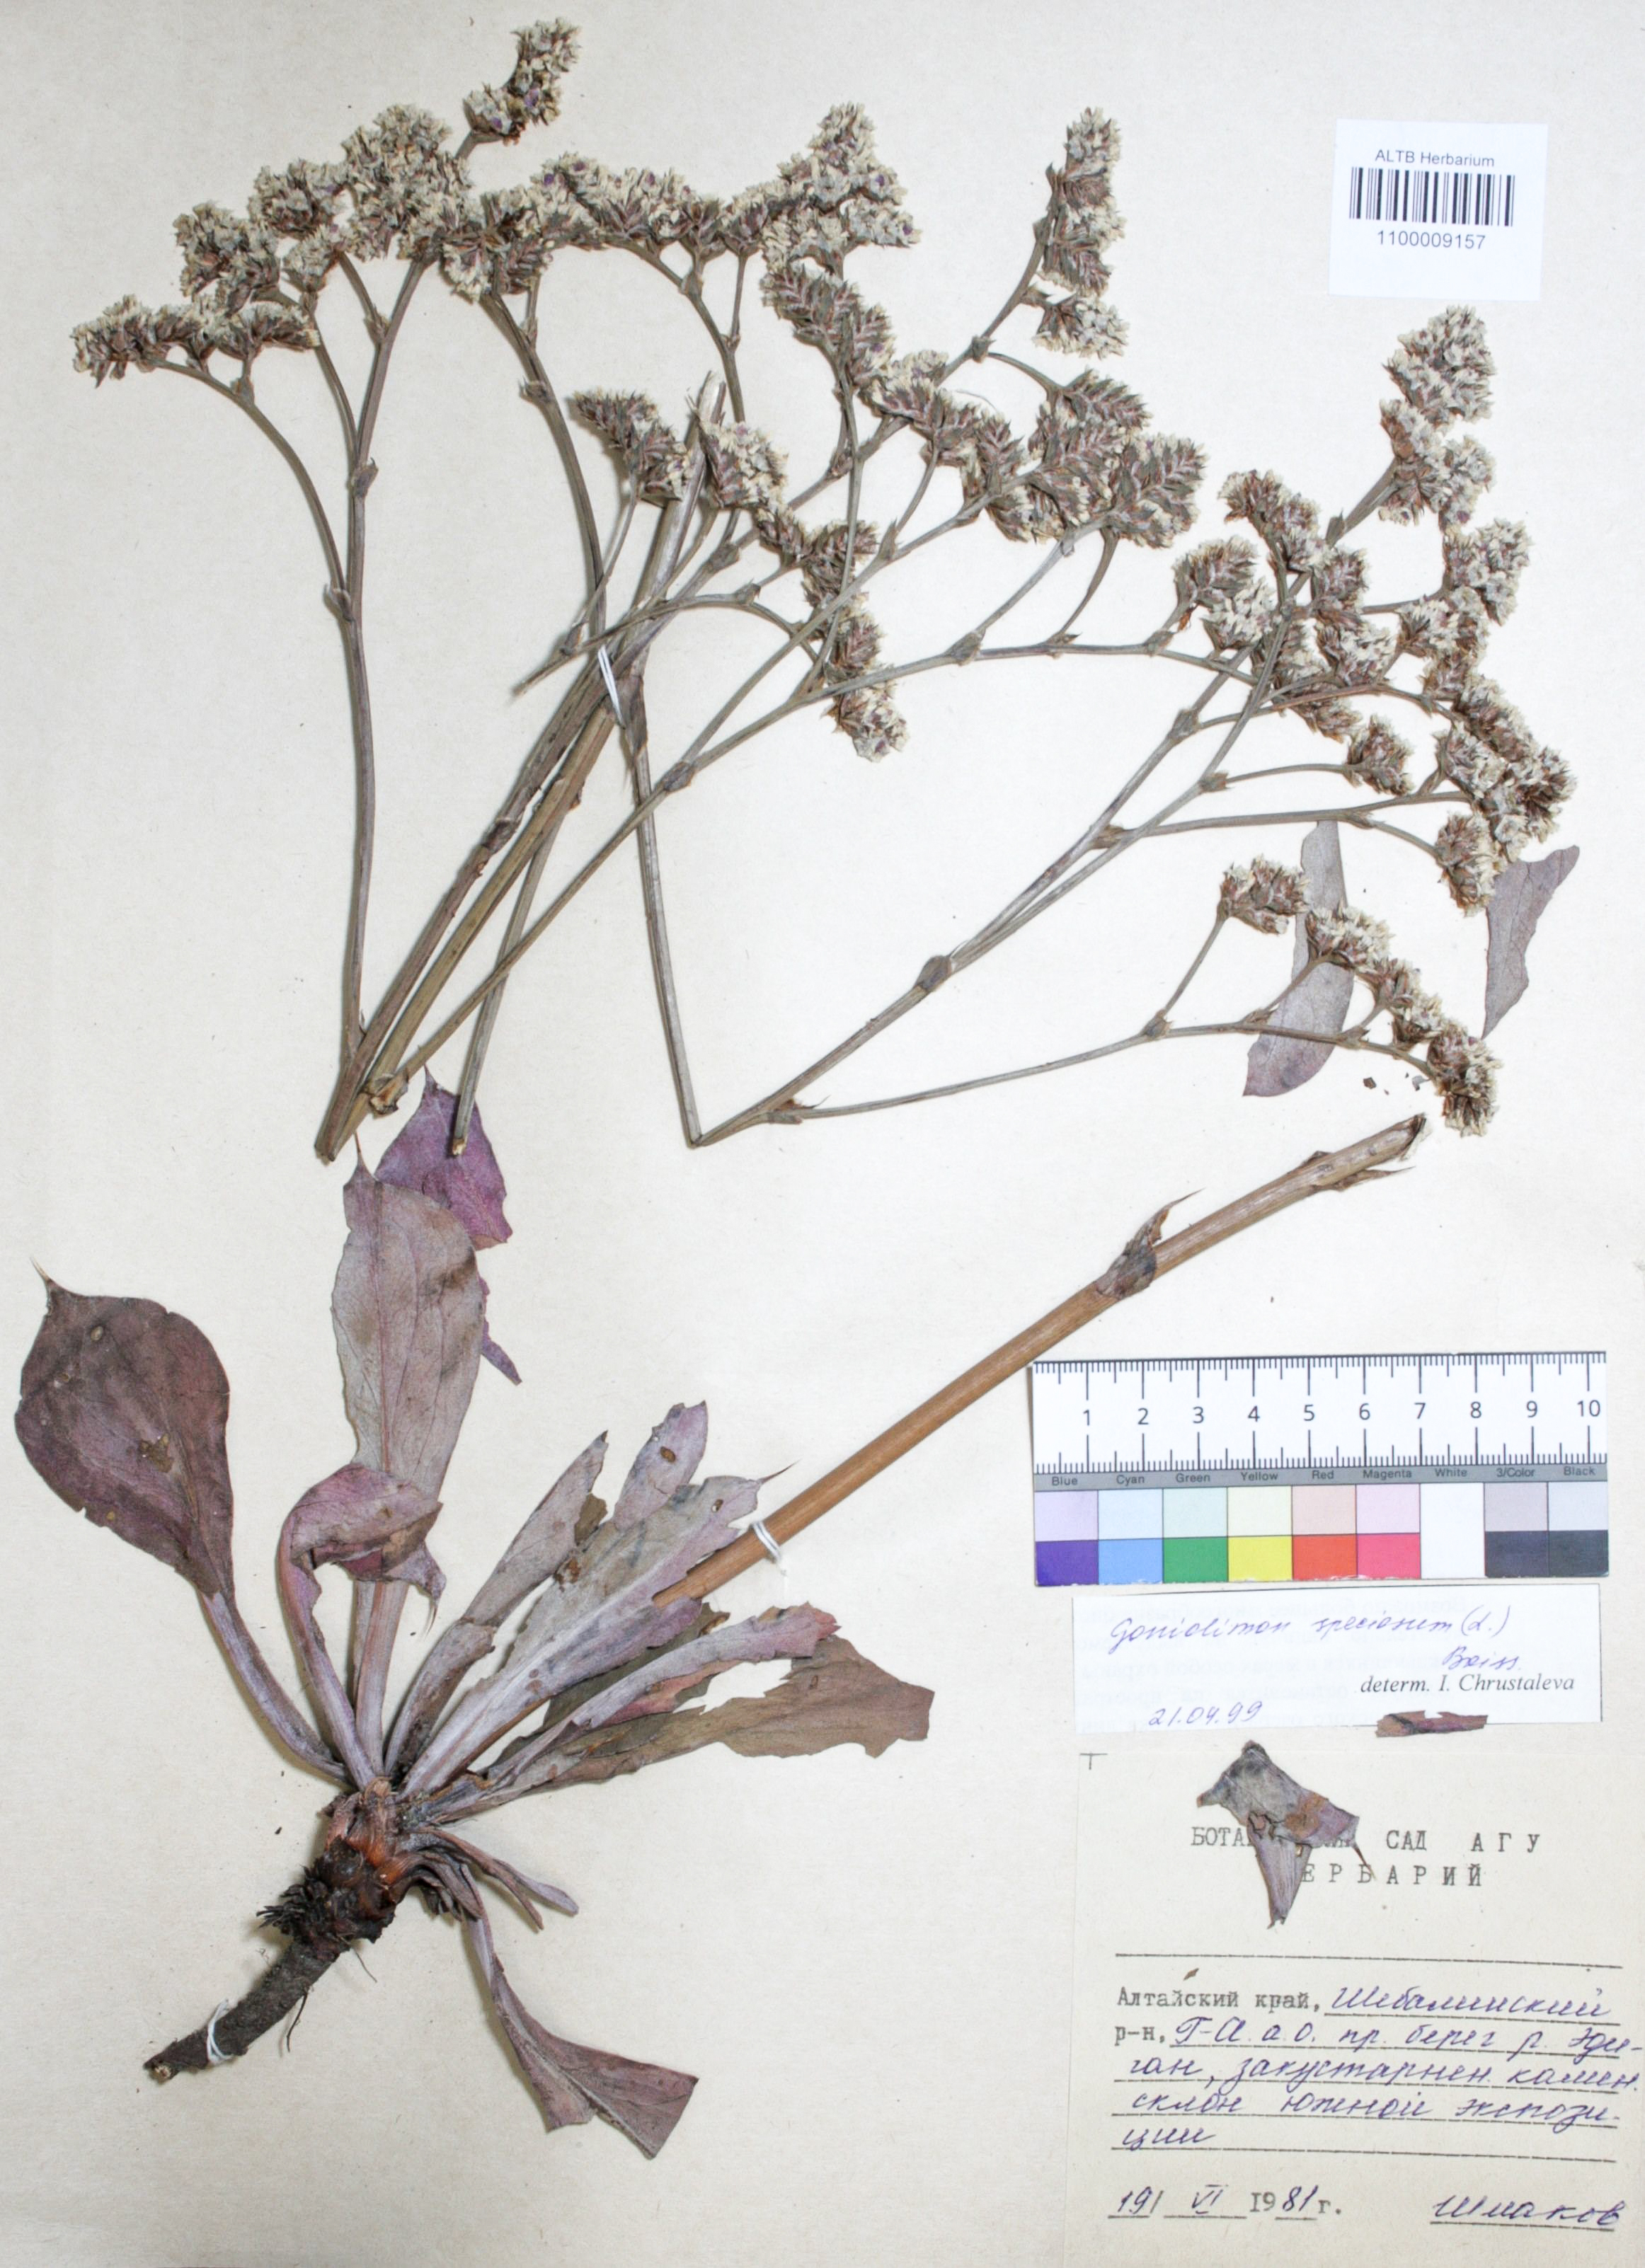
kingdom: Plantae
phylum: Tracheophyta
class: Magnoliopsida
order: Caryophyllales
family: Plumbaginaceae
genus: Goniolimon
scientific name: Goniolimon speciosum
